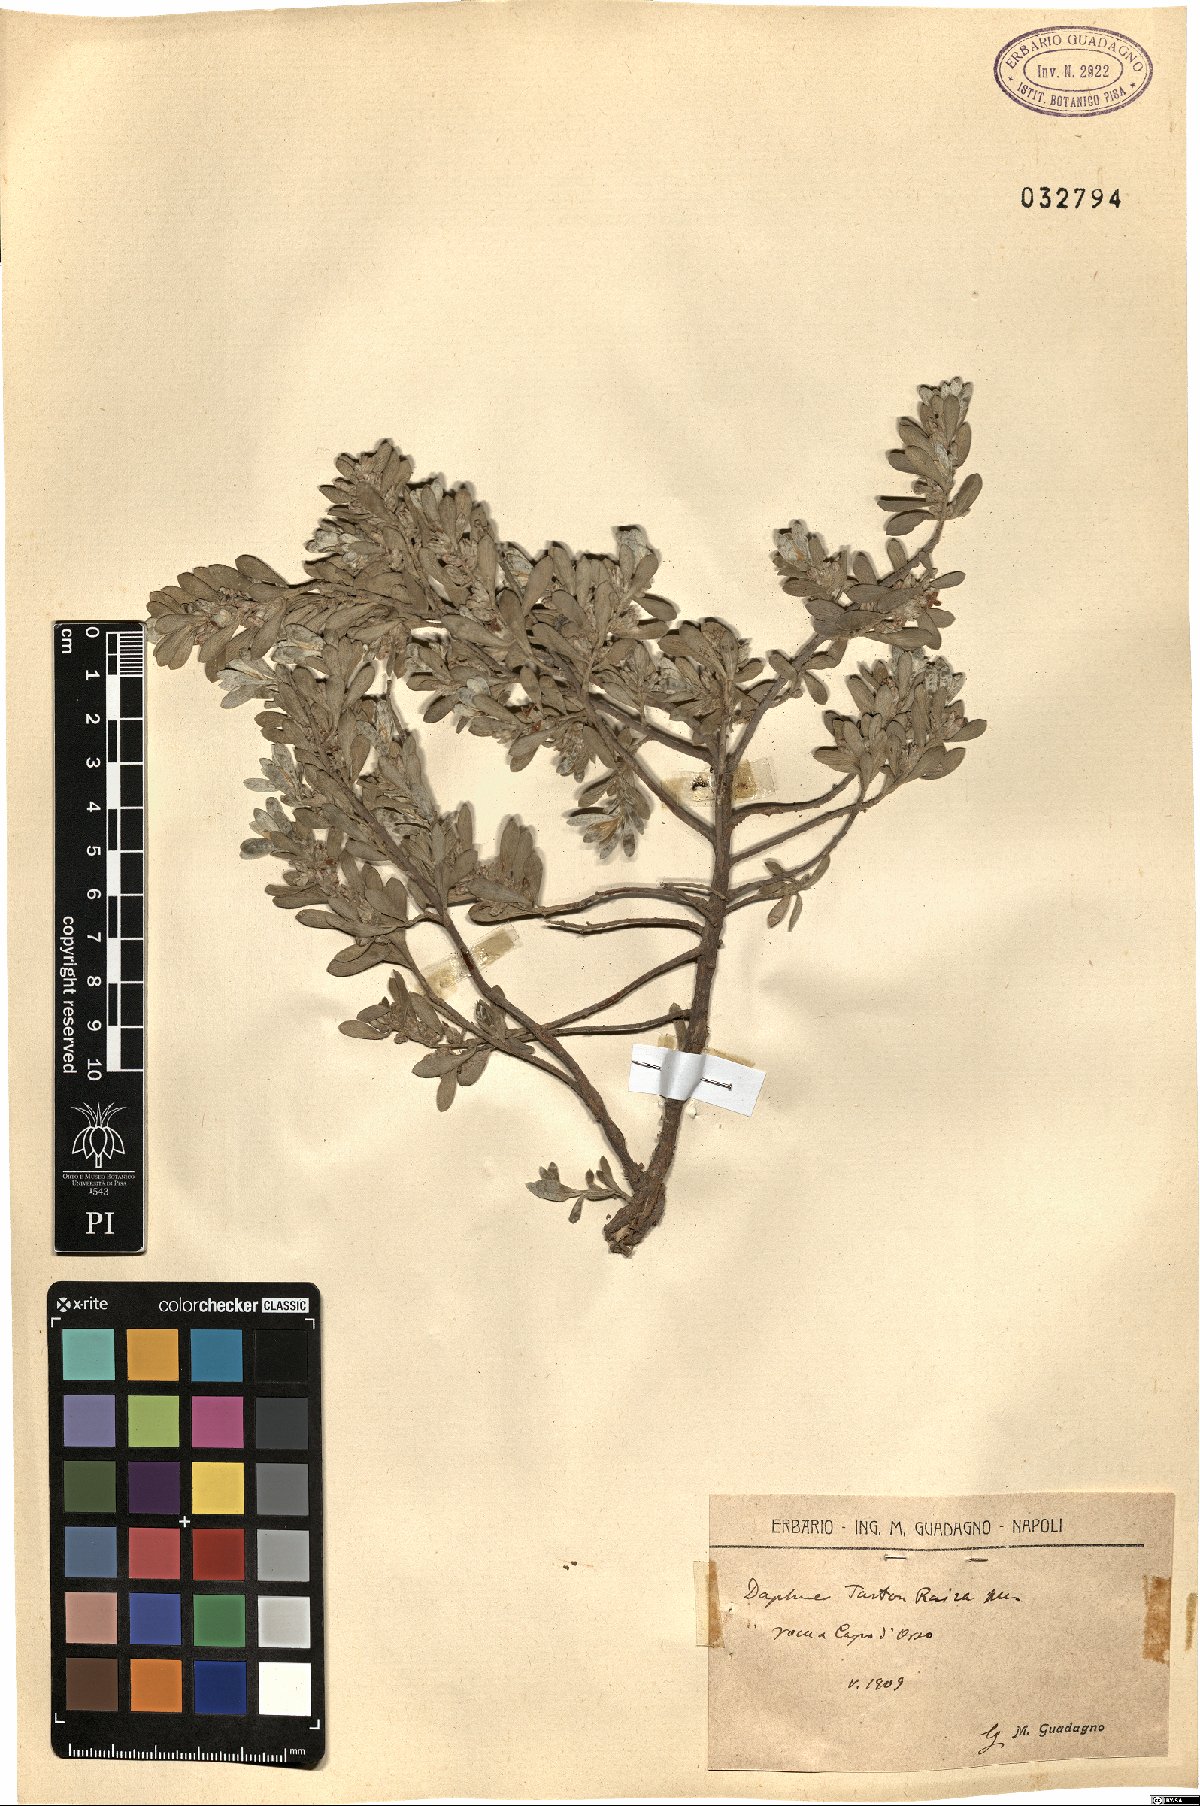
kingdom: Plantae
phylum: Tracheophyta
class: Magnoliopsida
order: Malvales
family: Thymelaeaceae
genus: Thymelaea
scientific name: Thymelaea tartonraira
